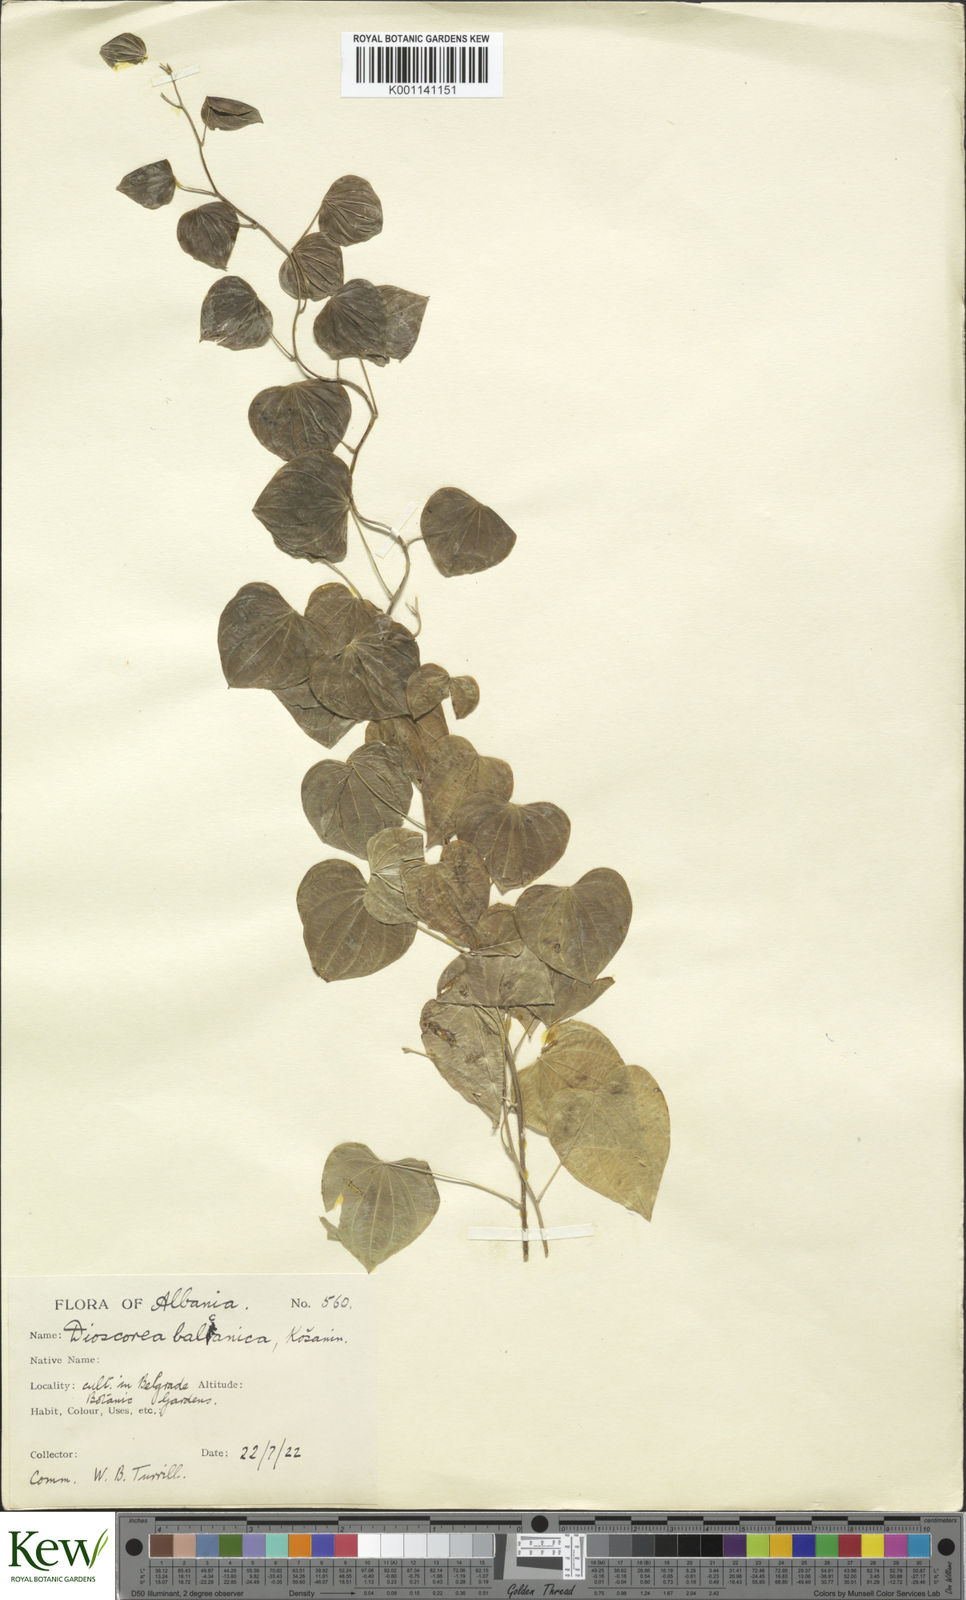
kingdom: Plantae
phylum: Tracheophyta
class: Liliopsida
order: Dioscoreales
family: Dioscoreaceae
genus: Dioscorea
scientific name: Dioscorea
